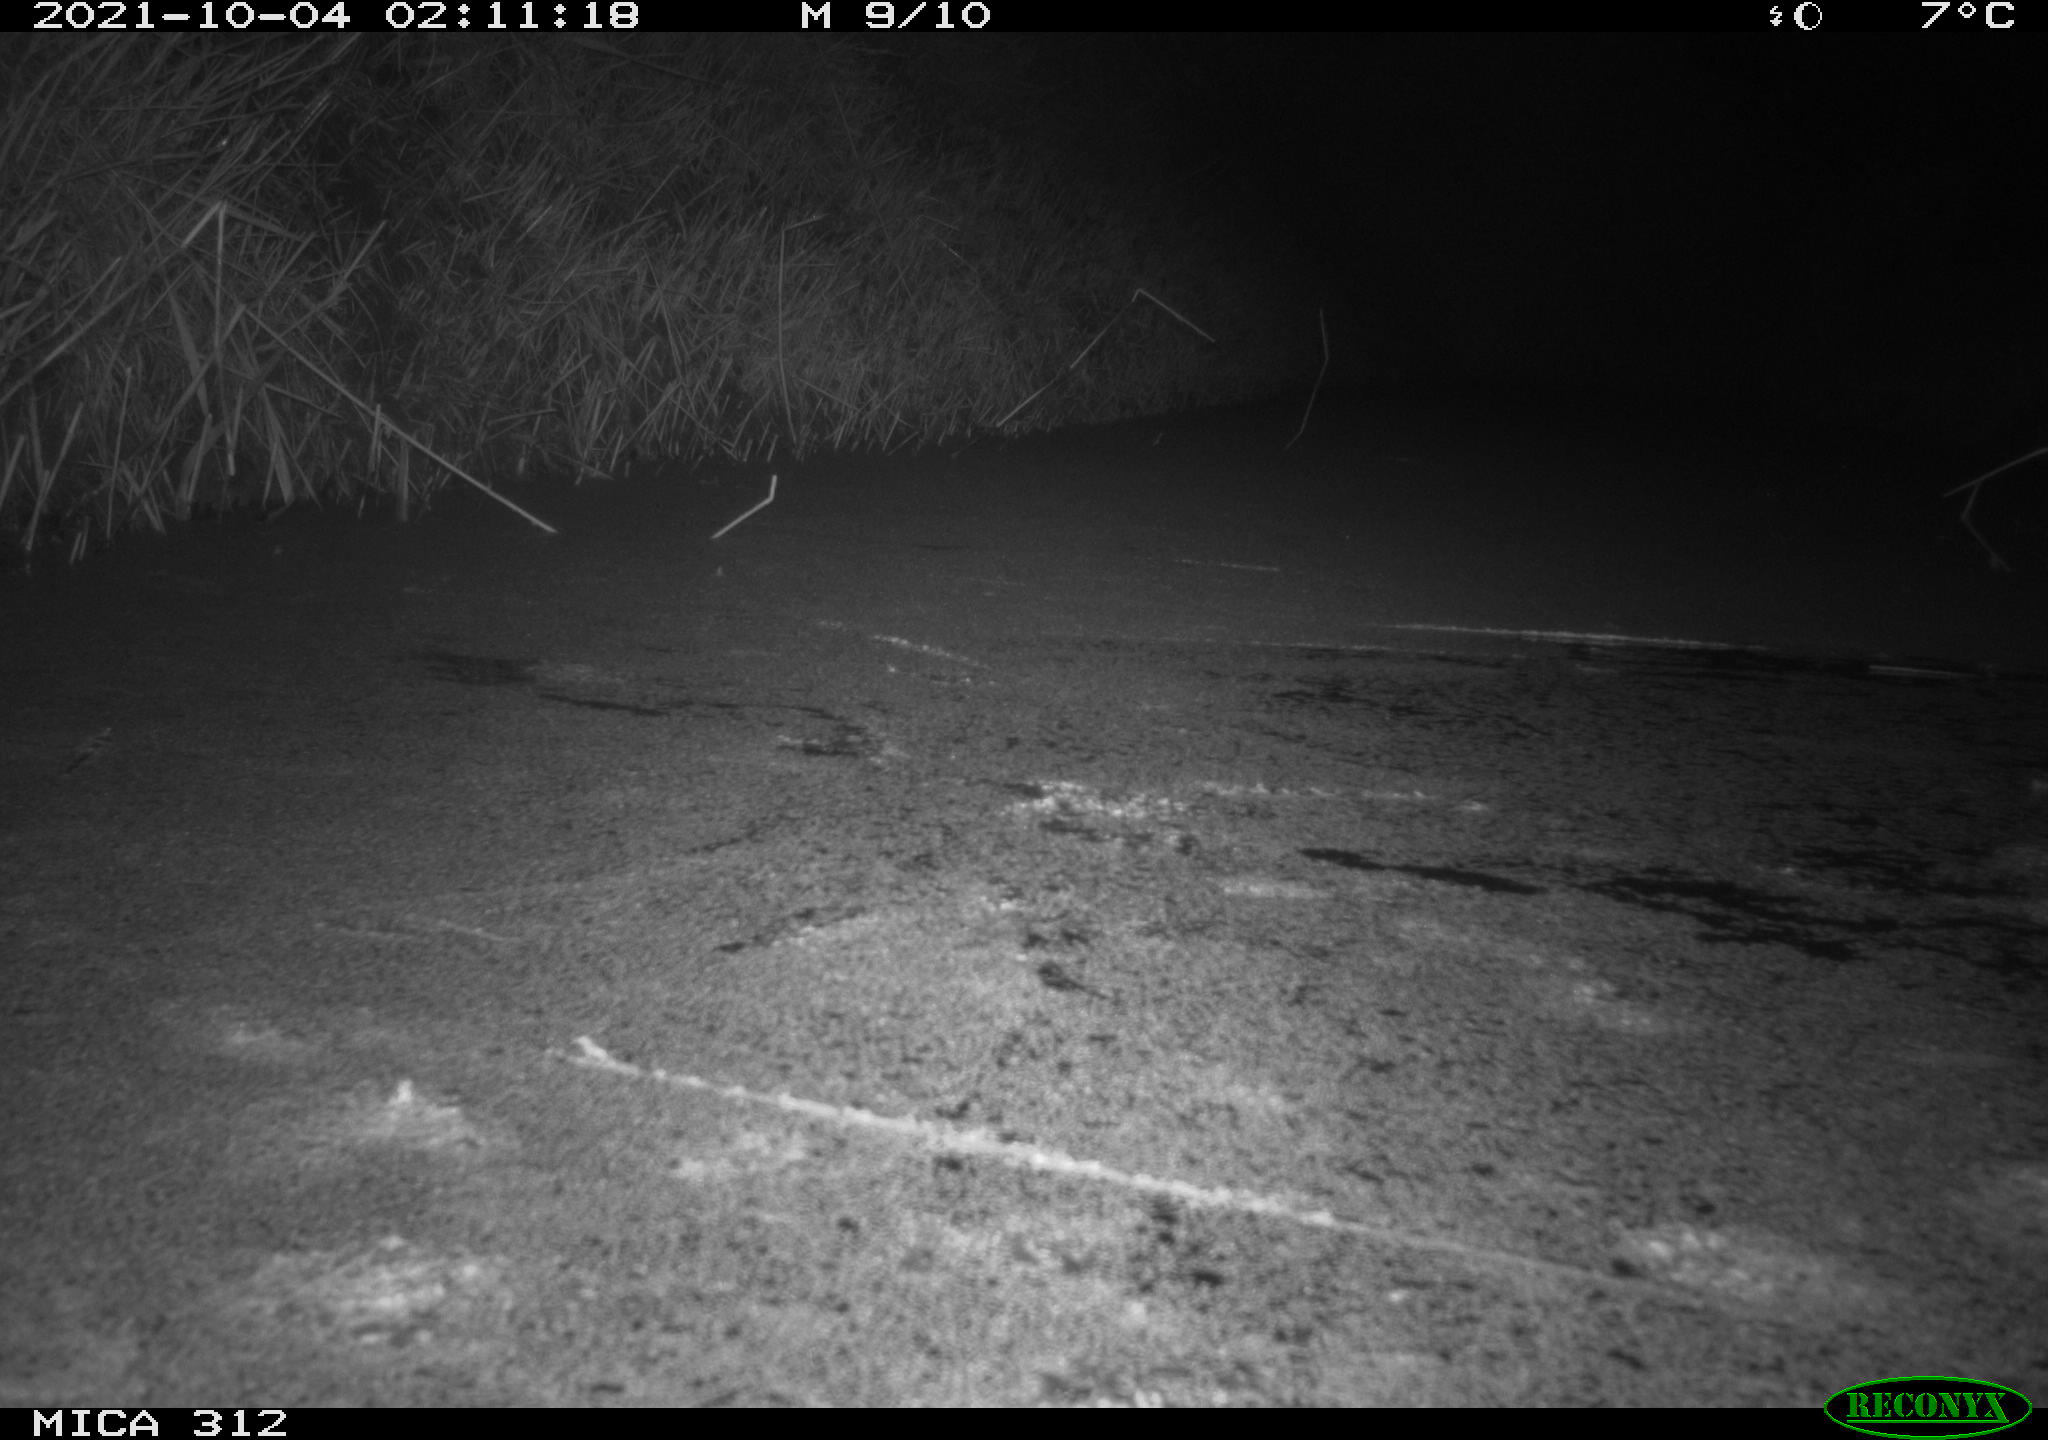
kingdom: Animalia
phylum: Chordata
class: Mammalia
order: Rodentia
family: Muridae
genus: Rattus
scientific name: Rattus norvegicus
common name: Brown rat
